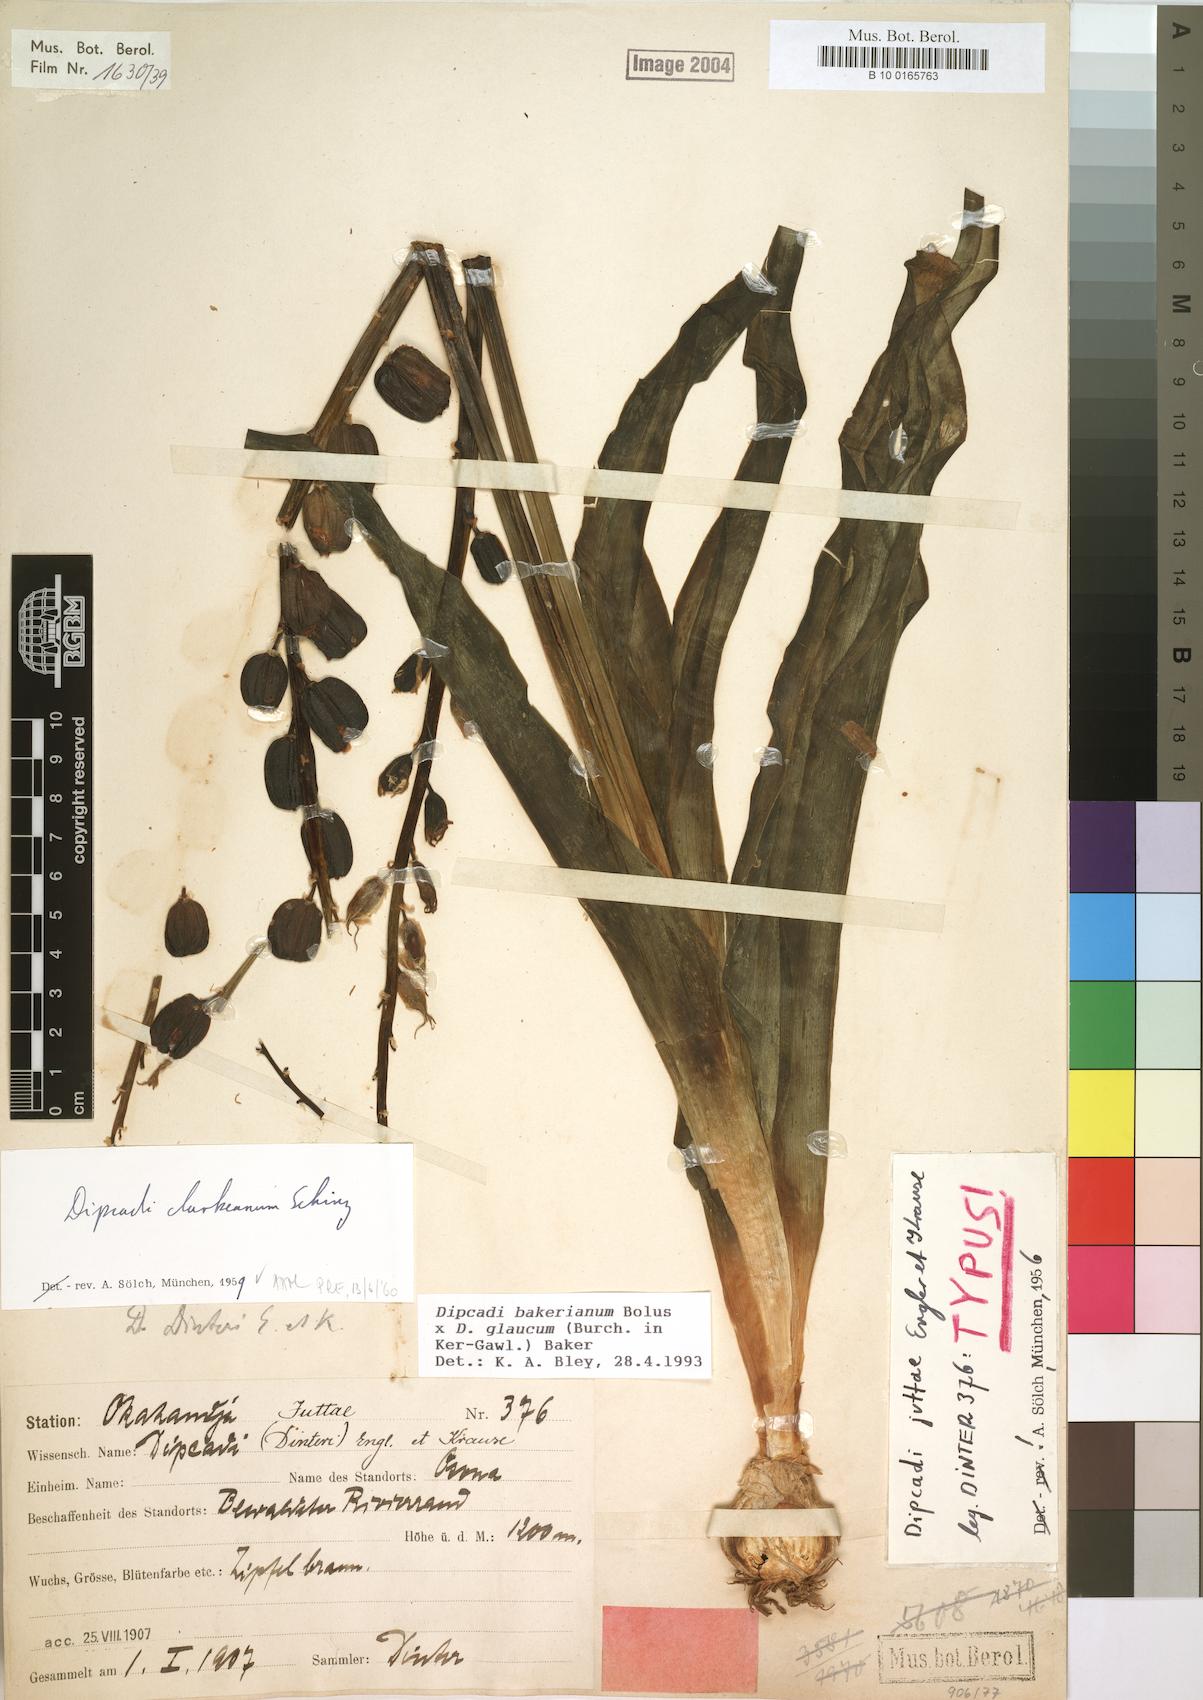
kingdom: Plantae
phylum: Tracheophyta
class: Liliopsida
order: Asparagales
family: Asparagaceae
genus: Dipcadi
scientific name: Dipcadi bakerianum
